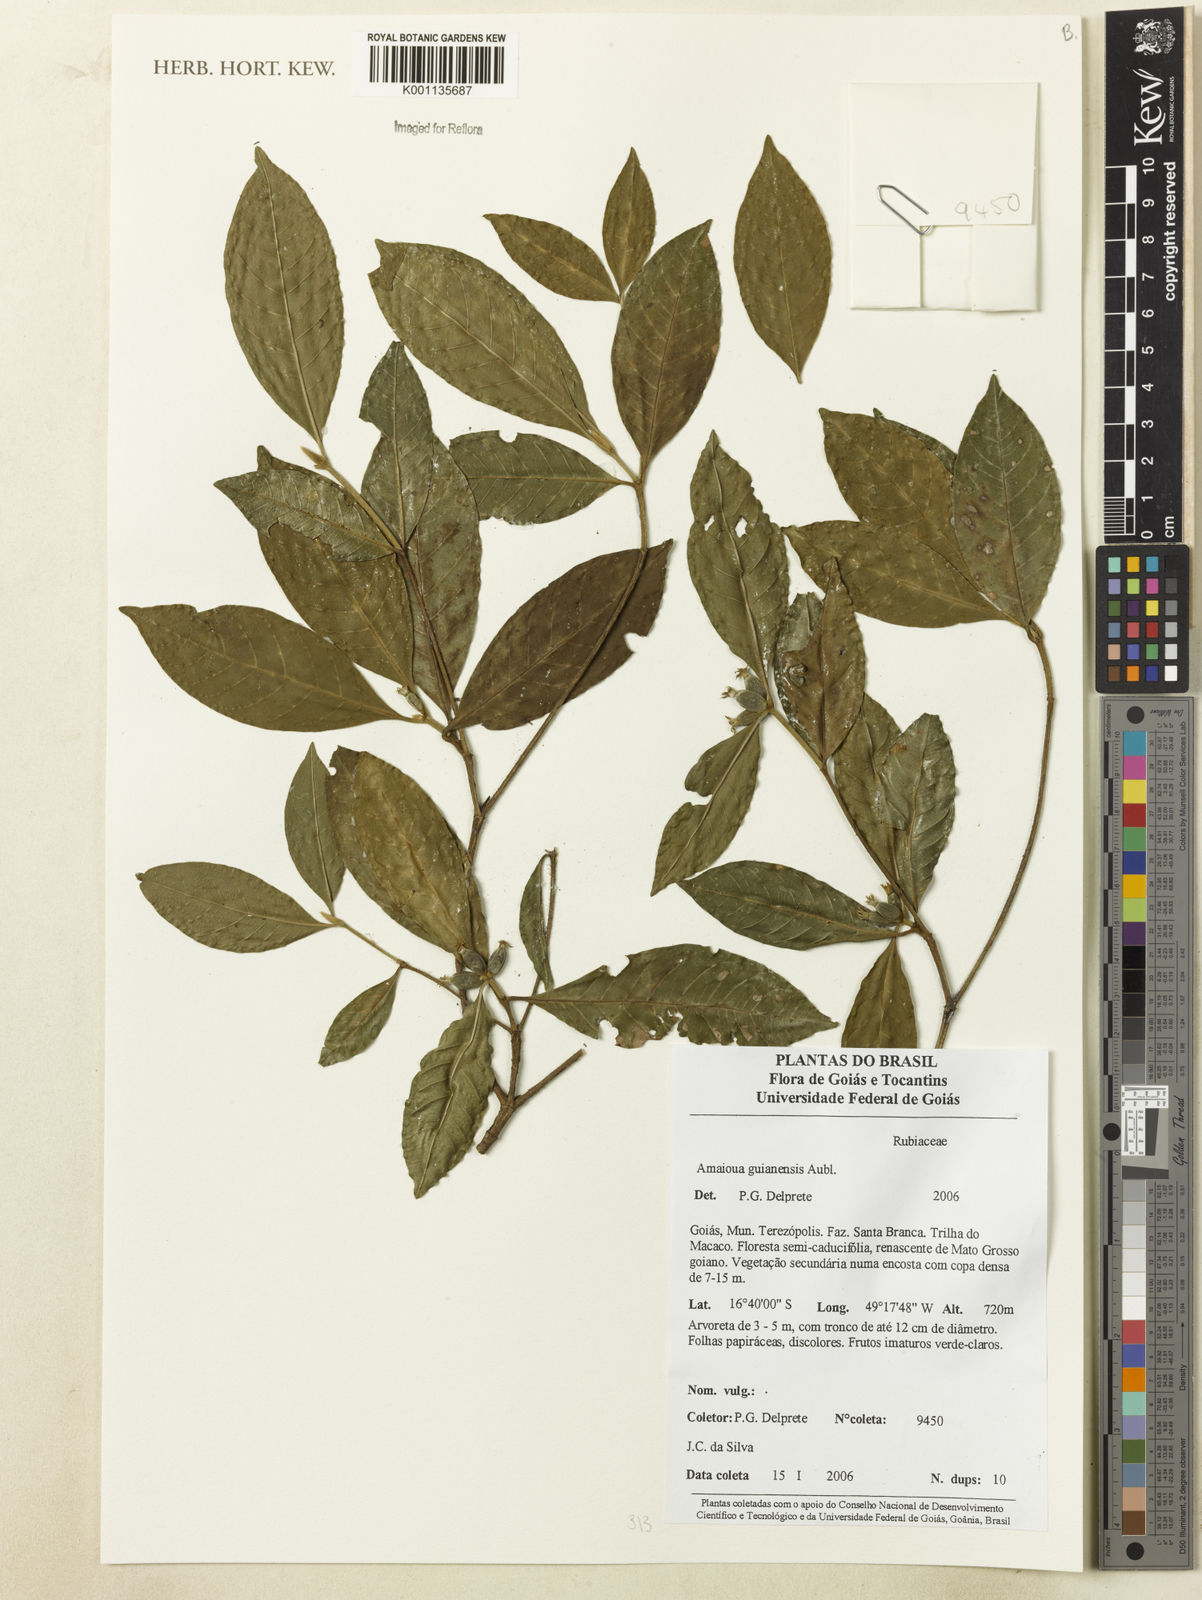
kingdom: Plantae
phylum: Tracheophyta
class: Magnoliopsida
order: Gentianales
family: Rubiaceae
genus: Amaioua
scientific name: Amaioua guianensis
